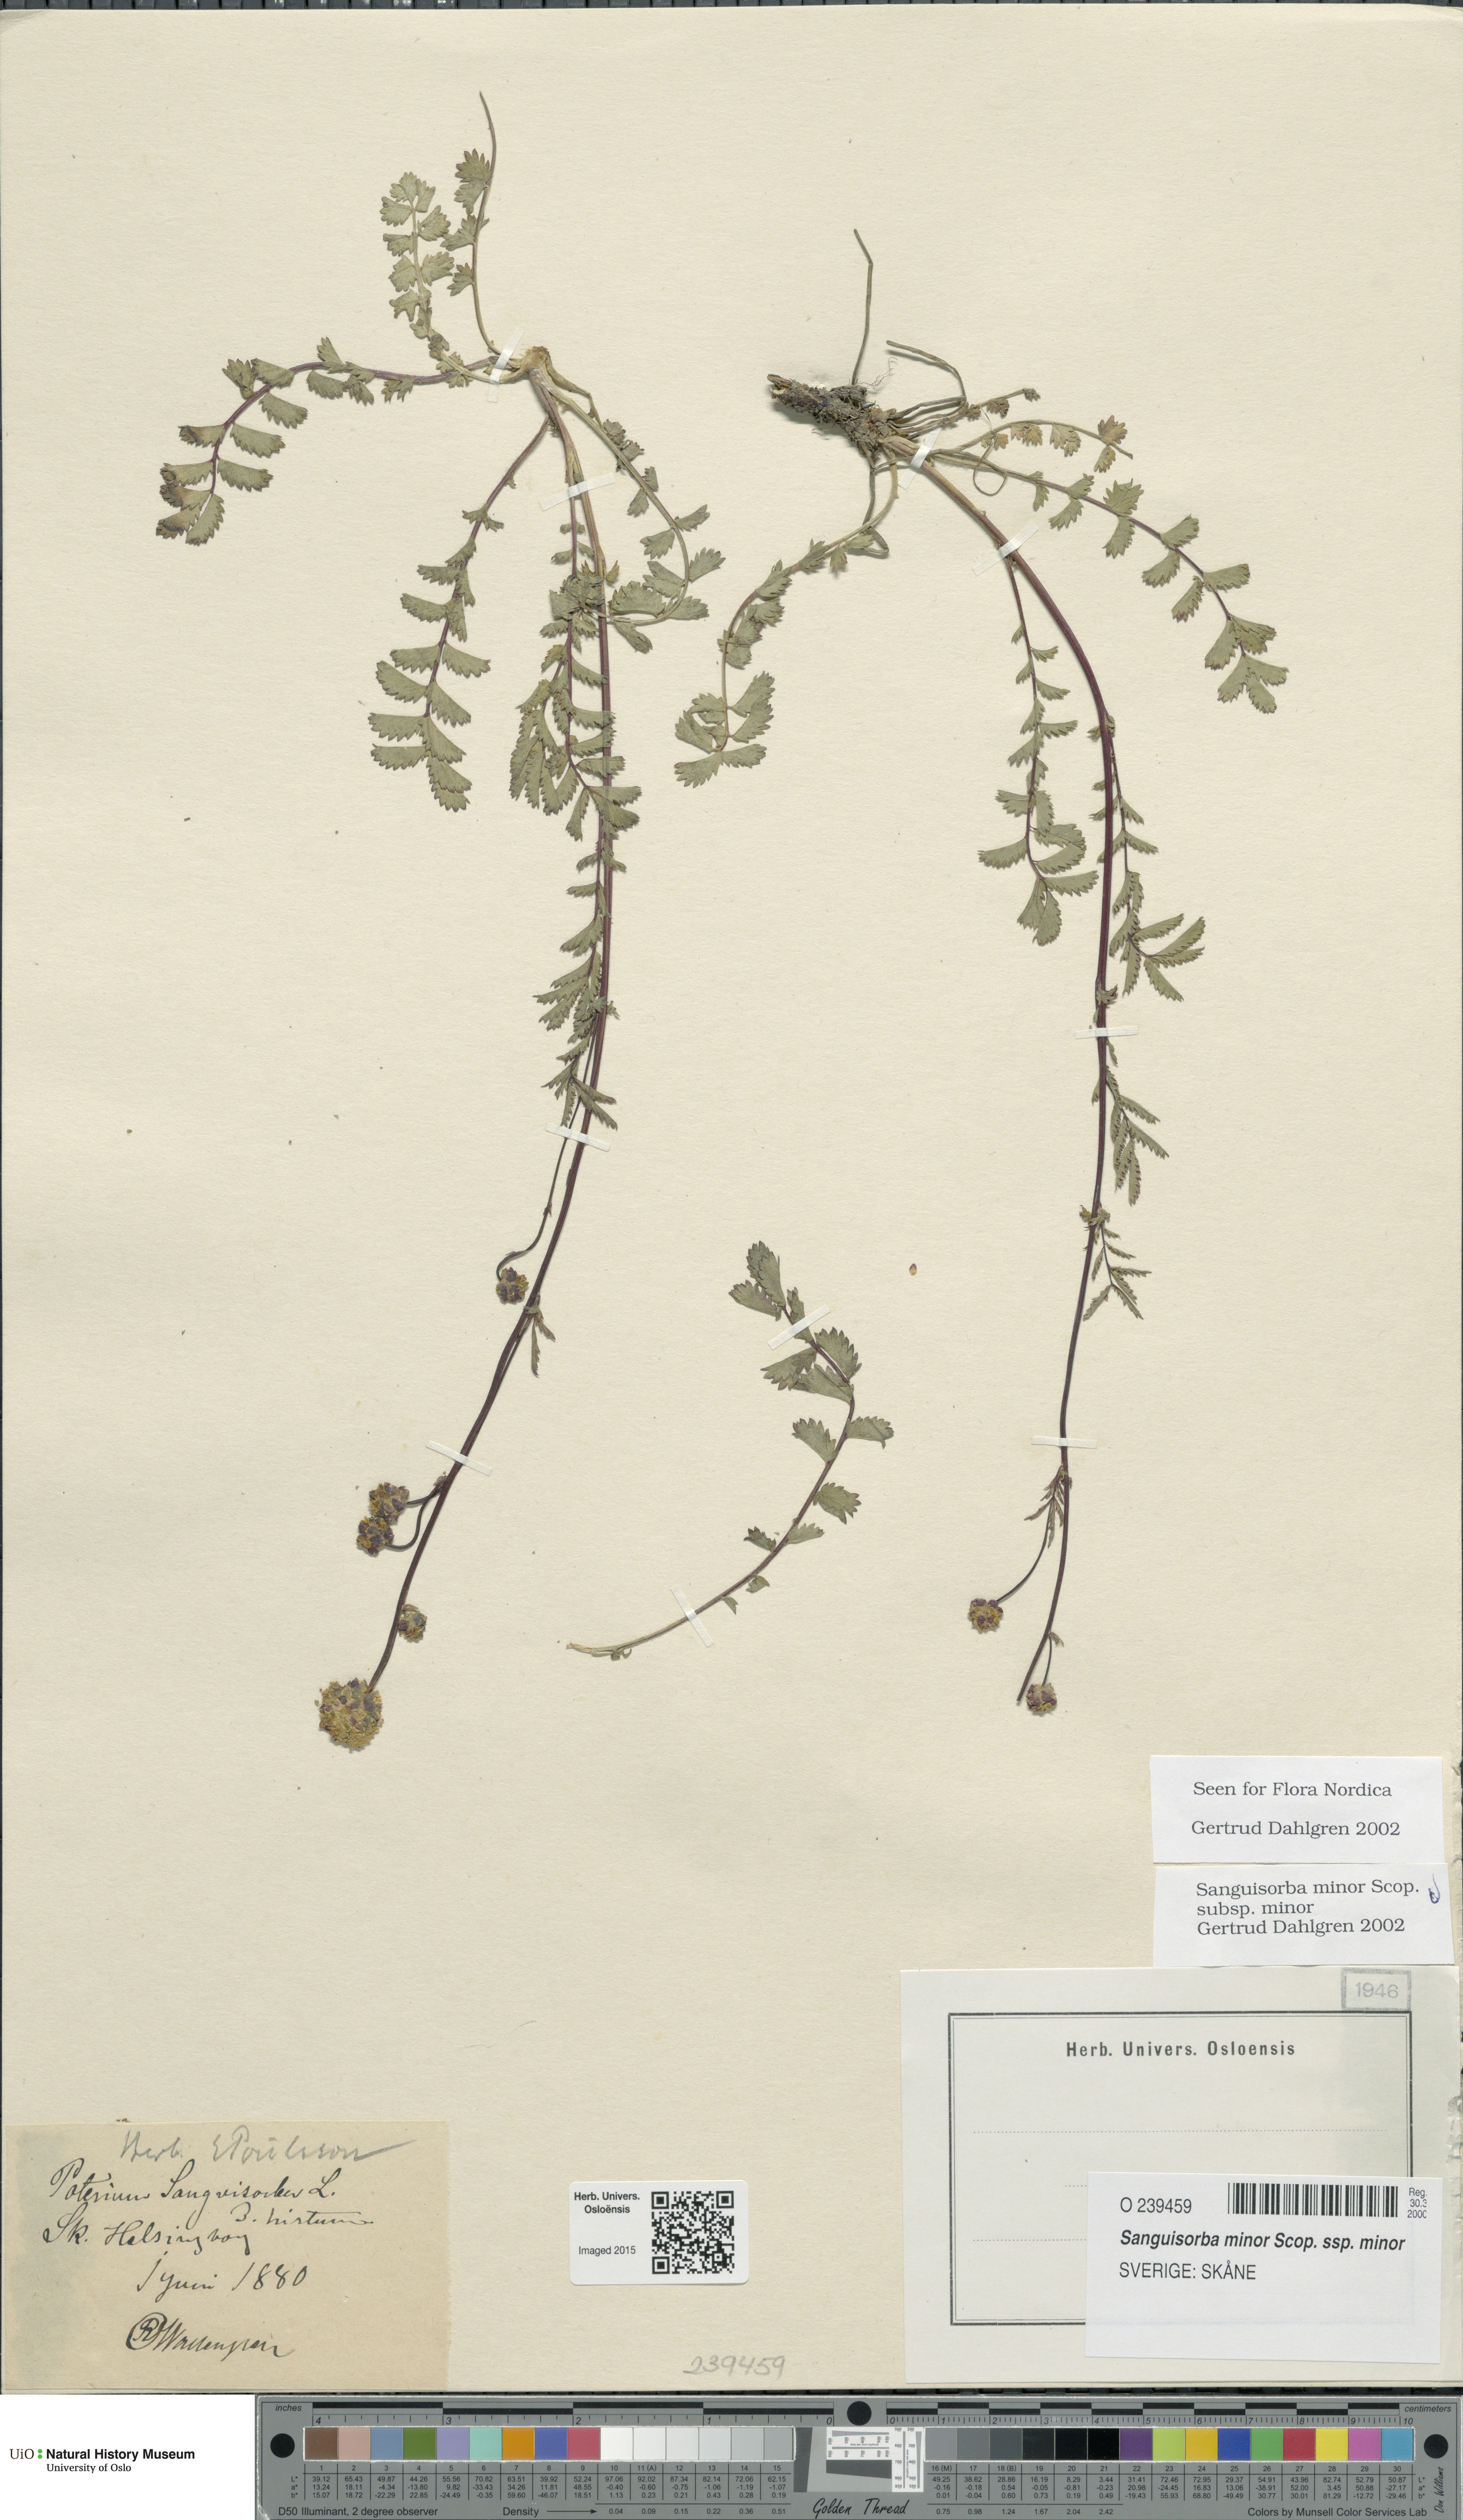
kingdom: Plantae
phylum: Tracheophyta
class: Magnoliopsida
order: Rosales
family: Rosaceae
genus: Poterium
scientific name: Poterium sanguisorba
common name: Salad burnet
